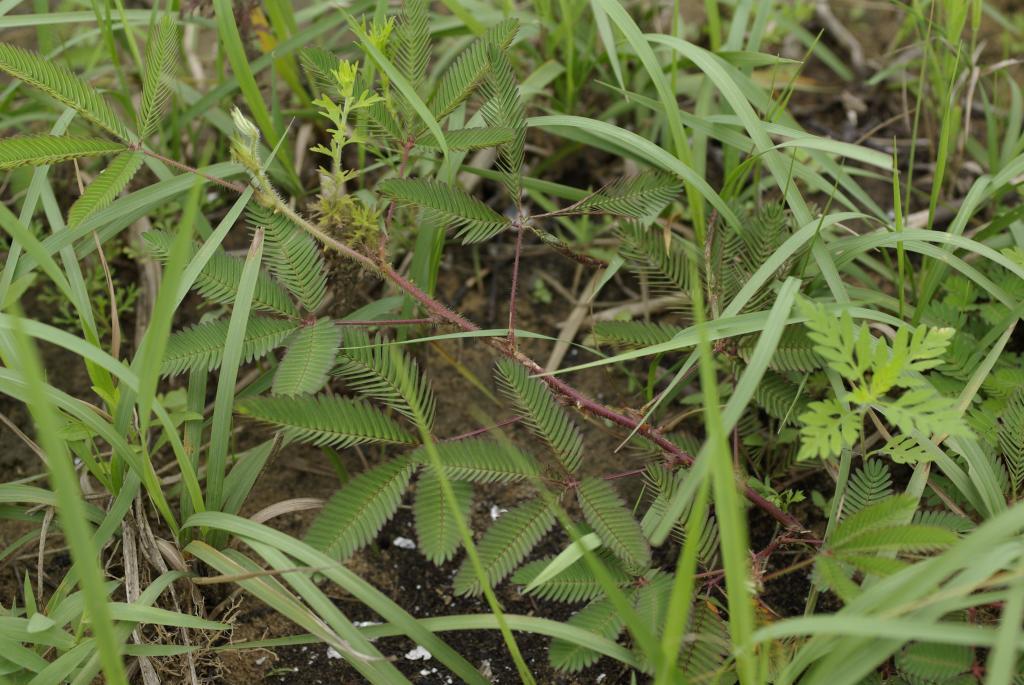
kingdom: Plantae
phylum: Tracheophyta
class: Magnoliopsida
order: Fabales
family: Fabaceae
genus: Mimosa
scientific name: Mimosa pudica
